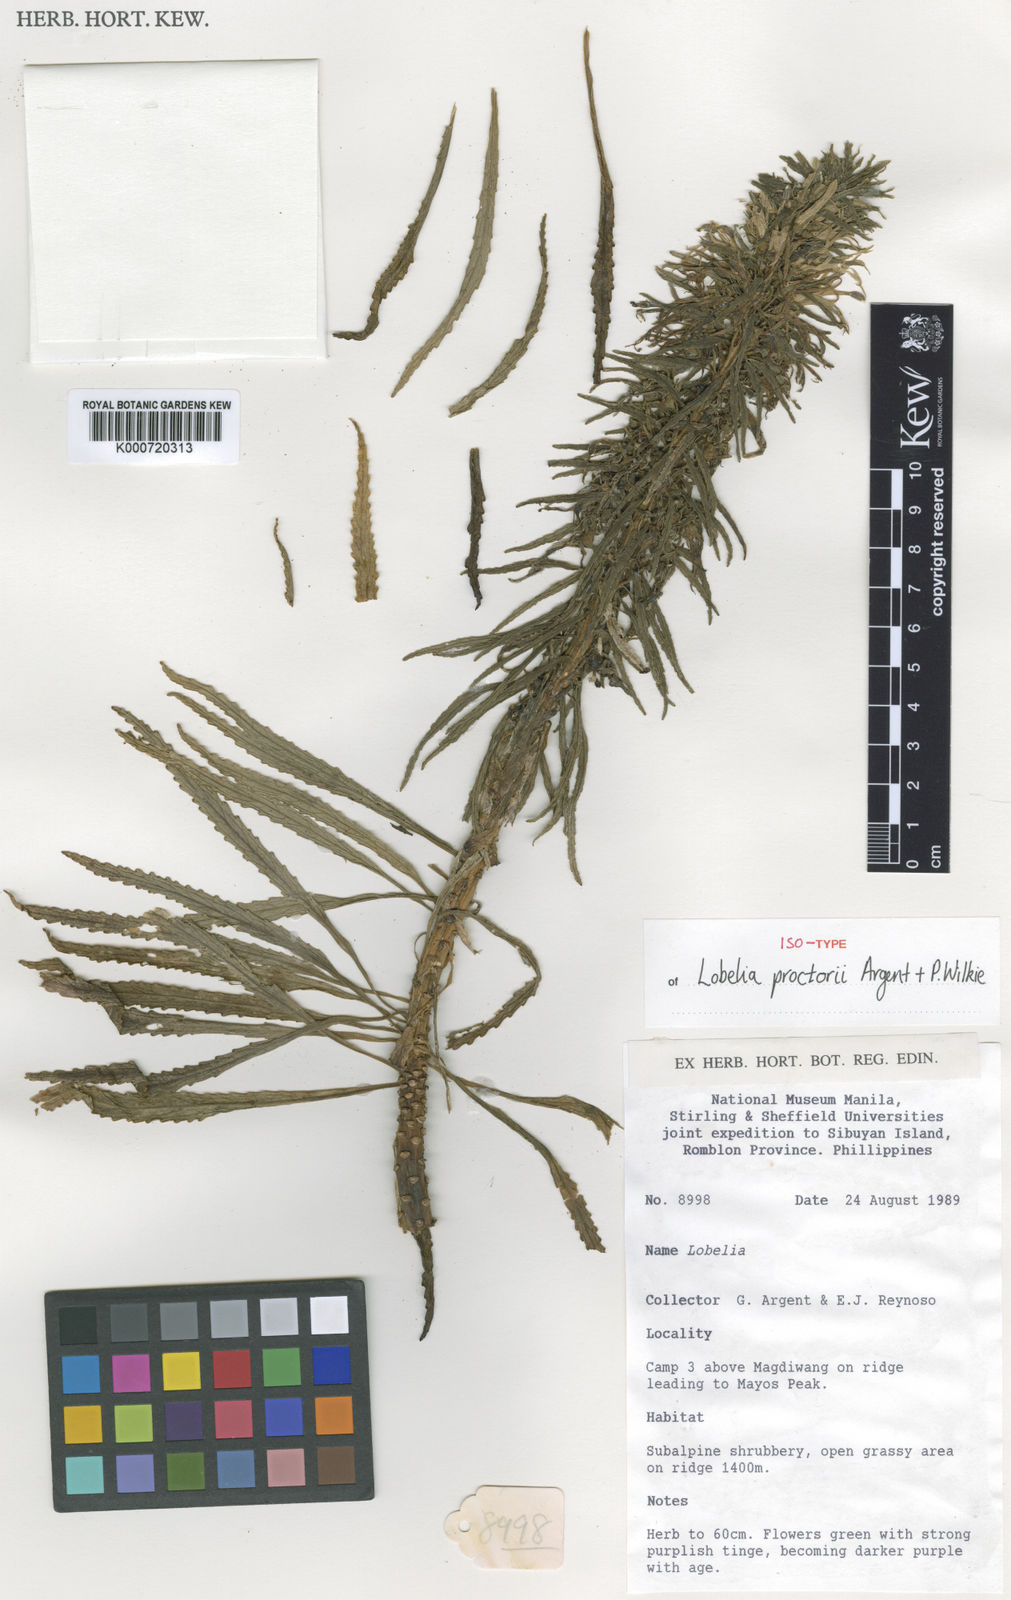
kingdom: Plantae
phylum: Tracheophyta
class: Magnoliopsida
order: Asterales
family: Campanulaceae
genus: Lobelia
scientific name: Lobelia proctorii
